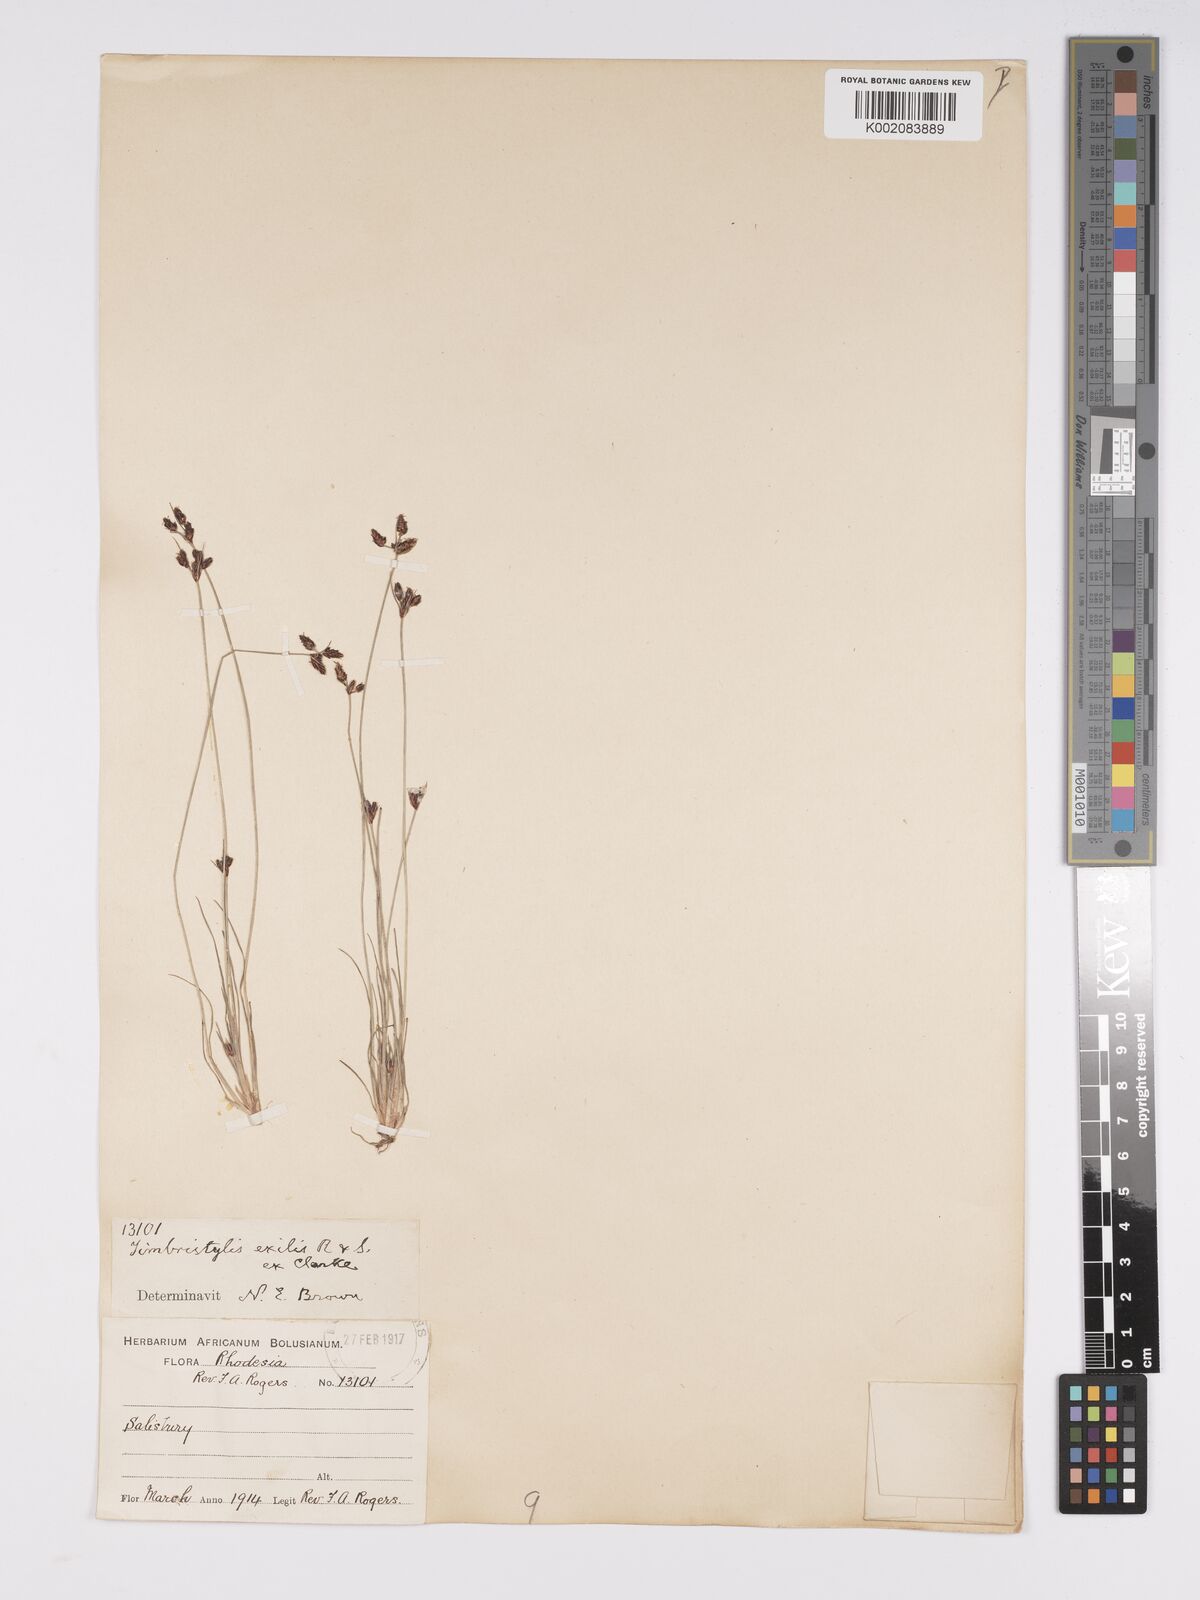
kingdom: Plantae
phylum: Tracheophyta
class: Liliopsida
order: Poales
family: Cyperaceae
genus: Bulbostylis
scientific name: Bulbostylis hispidula
